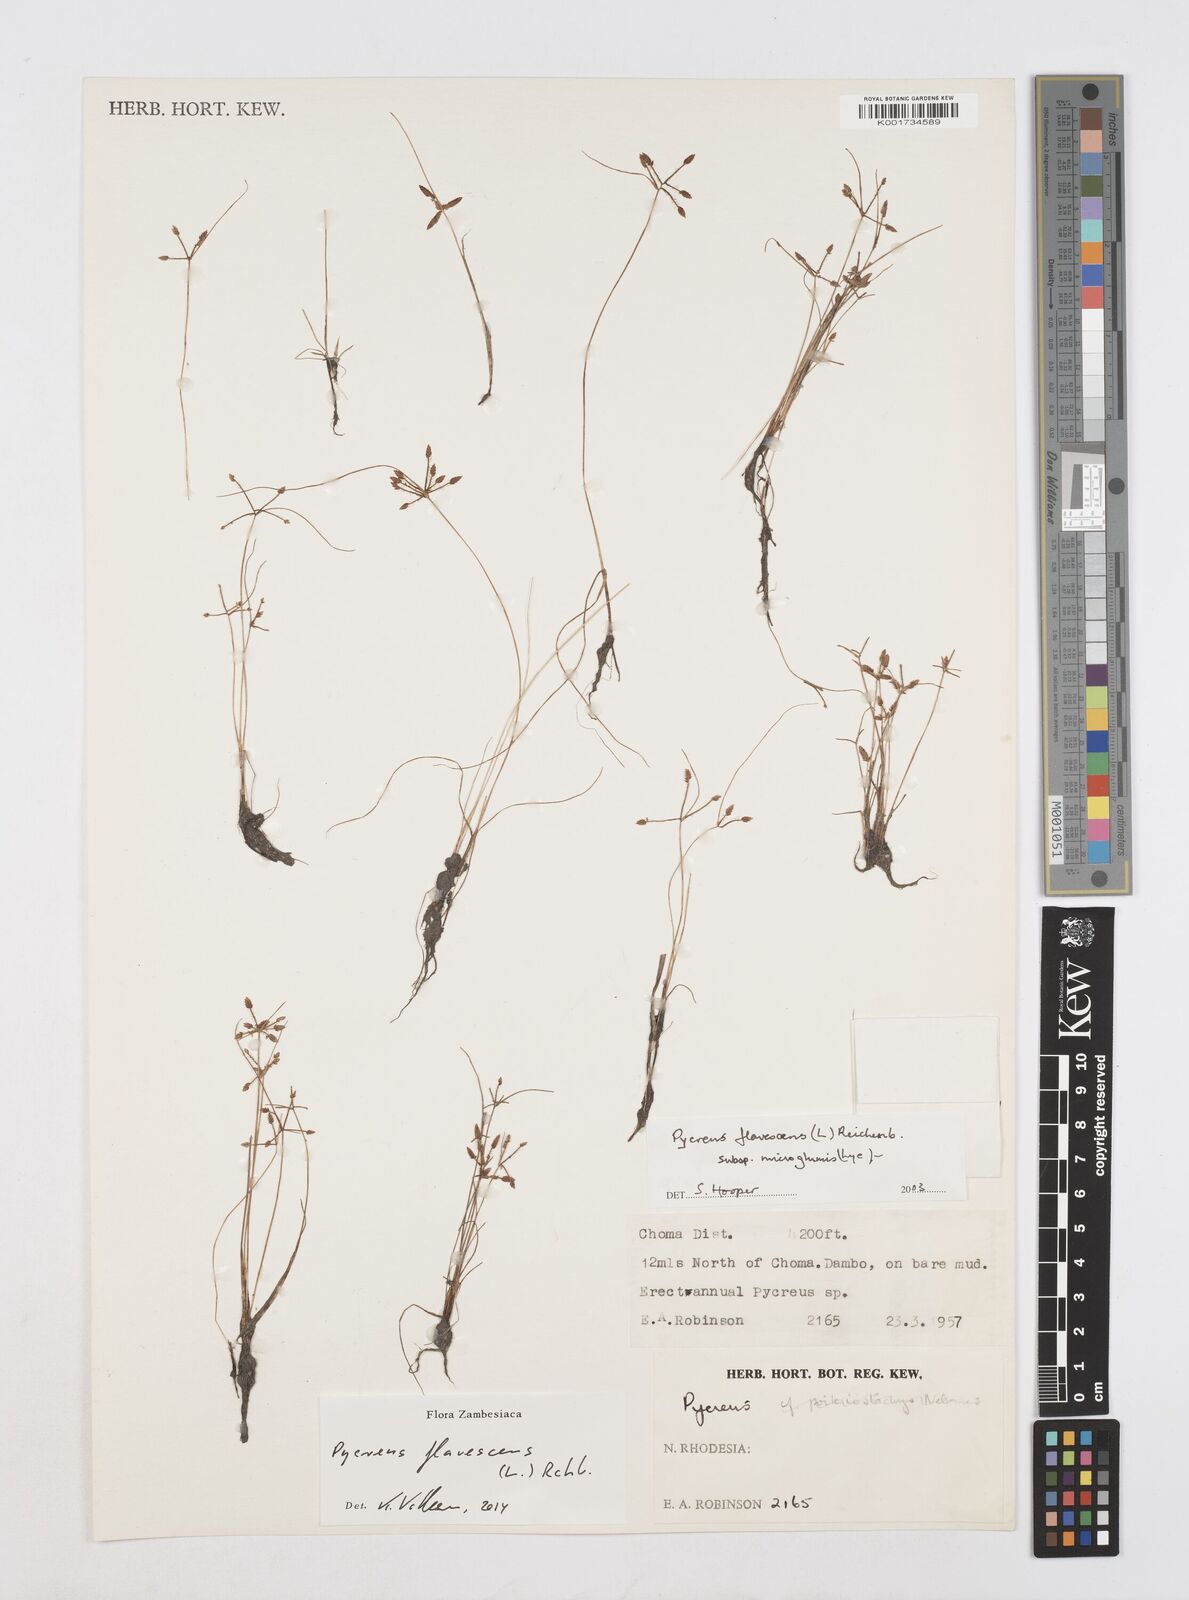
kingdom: Plantae
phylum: Tracheophyta
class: Liliopsida
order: Poales
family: Cyperaceae
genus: Cyperus
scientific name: Cyperus flavescens
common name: Yellow galingale
